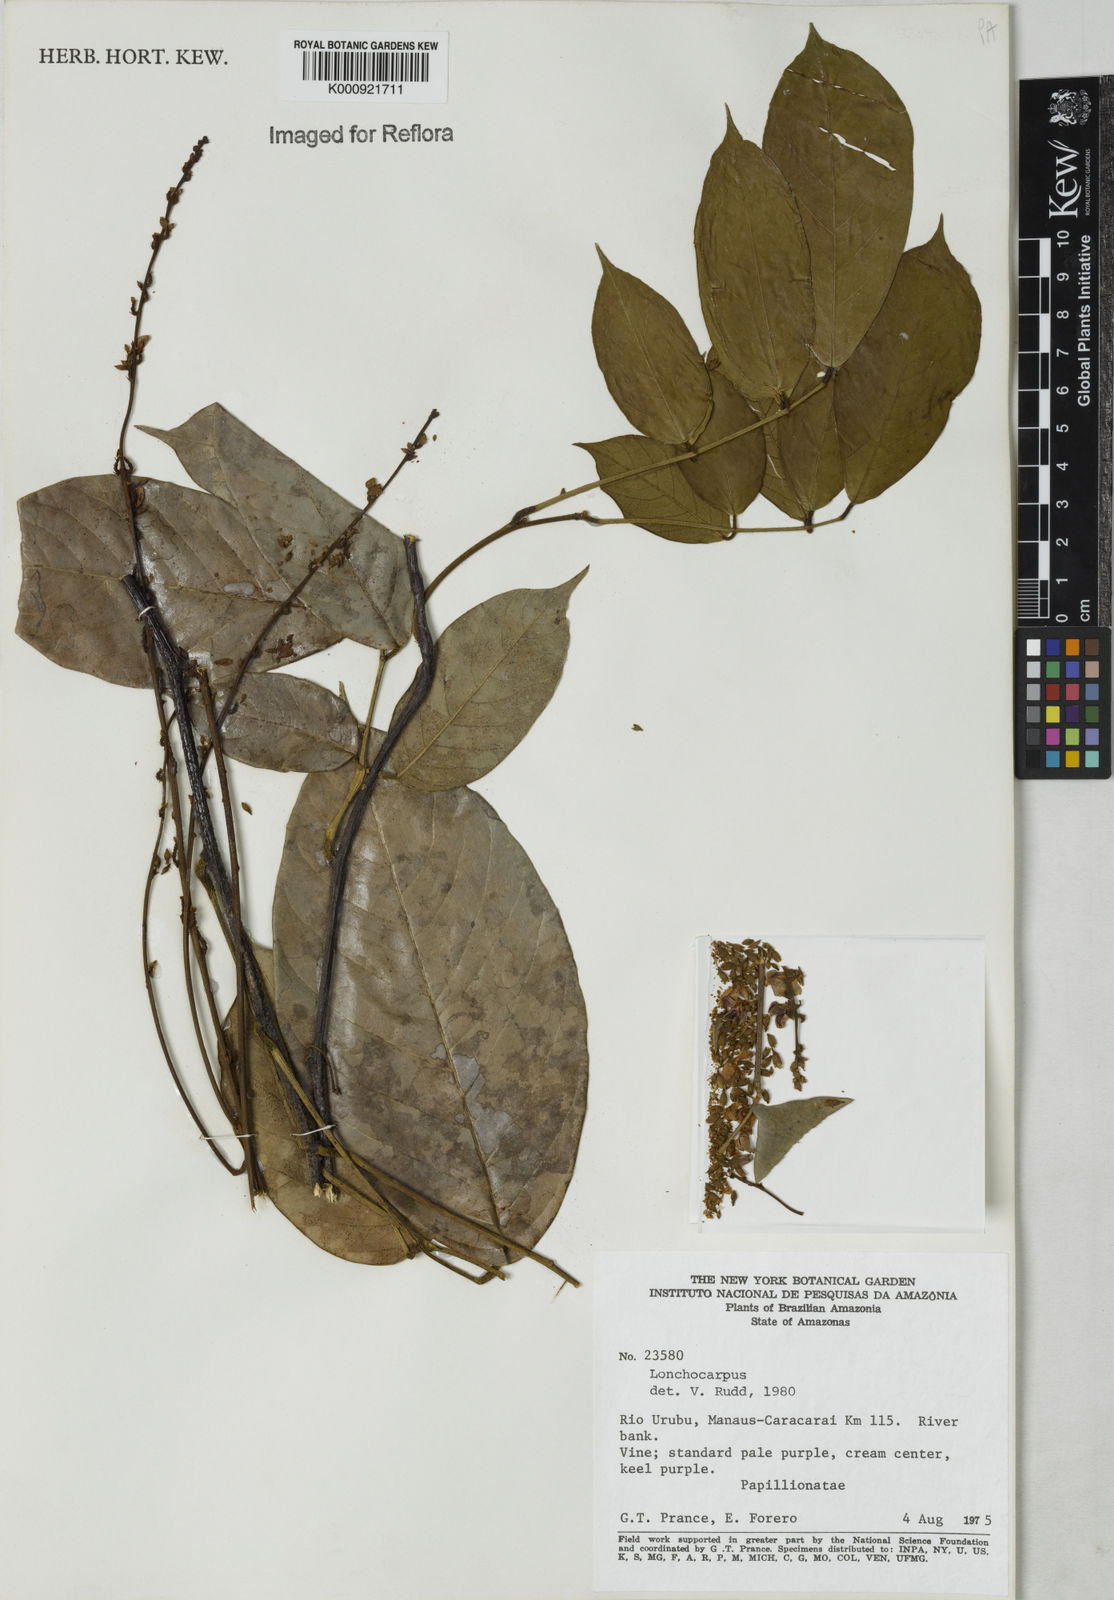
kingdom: Plantae
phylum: Tracheophyta
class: Magnoliopsida
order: Fabales
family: Fabaceae
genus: Lonchocarpus
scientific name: Lonchocarpus
